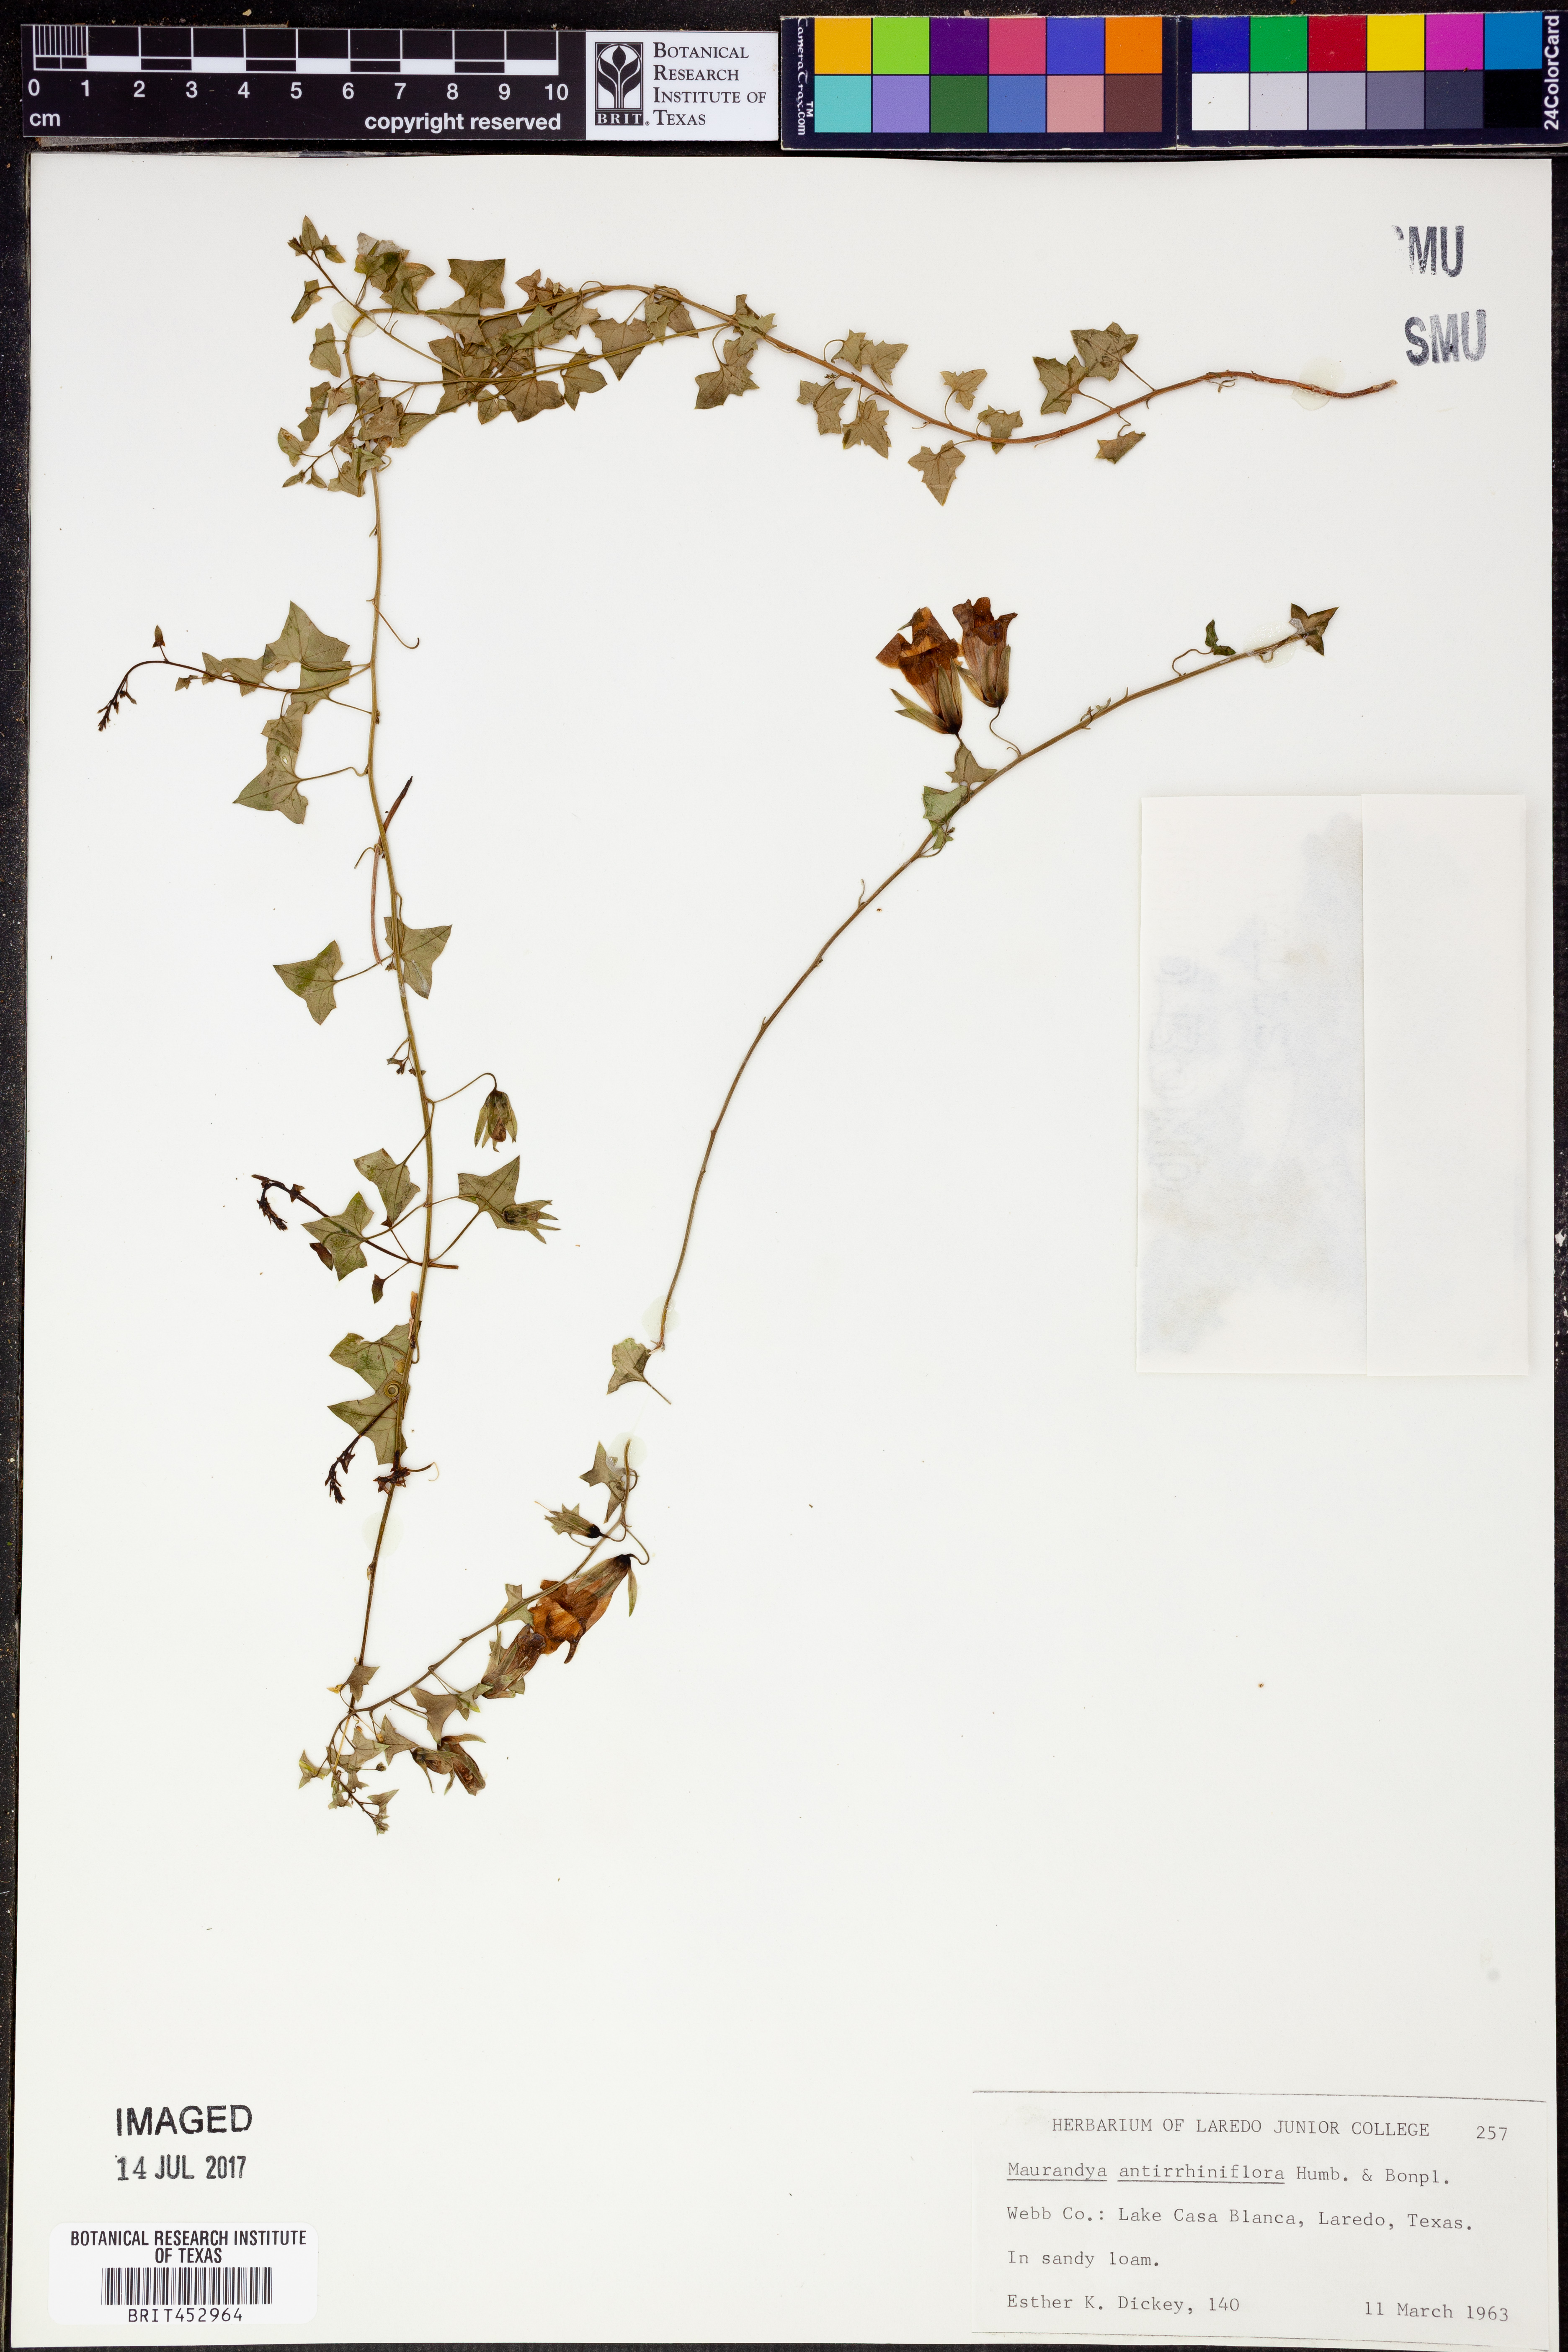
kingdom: Plantae
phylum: Tracheophyta
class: Magnoliopsida
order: Lamiales
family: Plantaginaceae
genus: Maurandella
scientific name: Maurandella antirrhiniflora
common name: Violet twining-snapdragon
